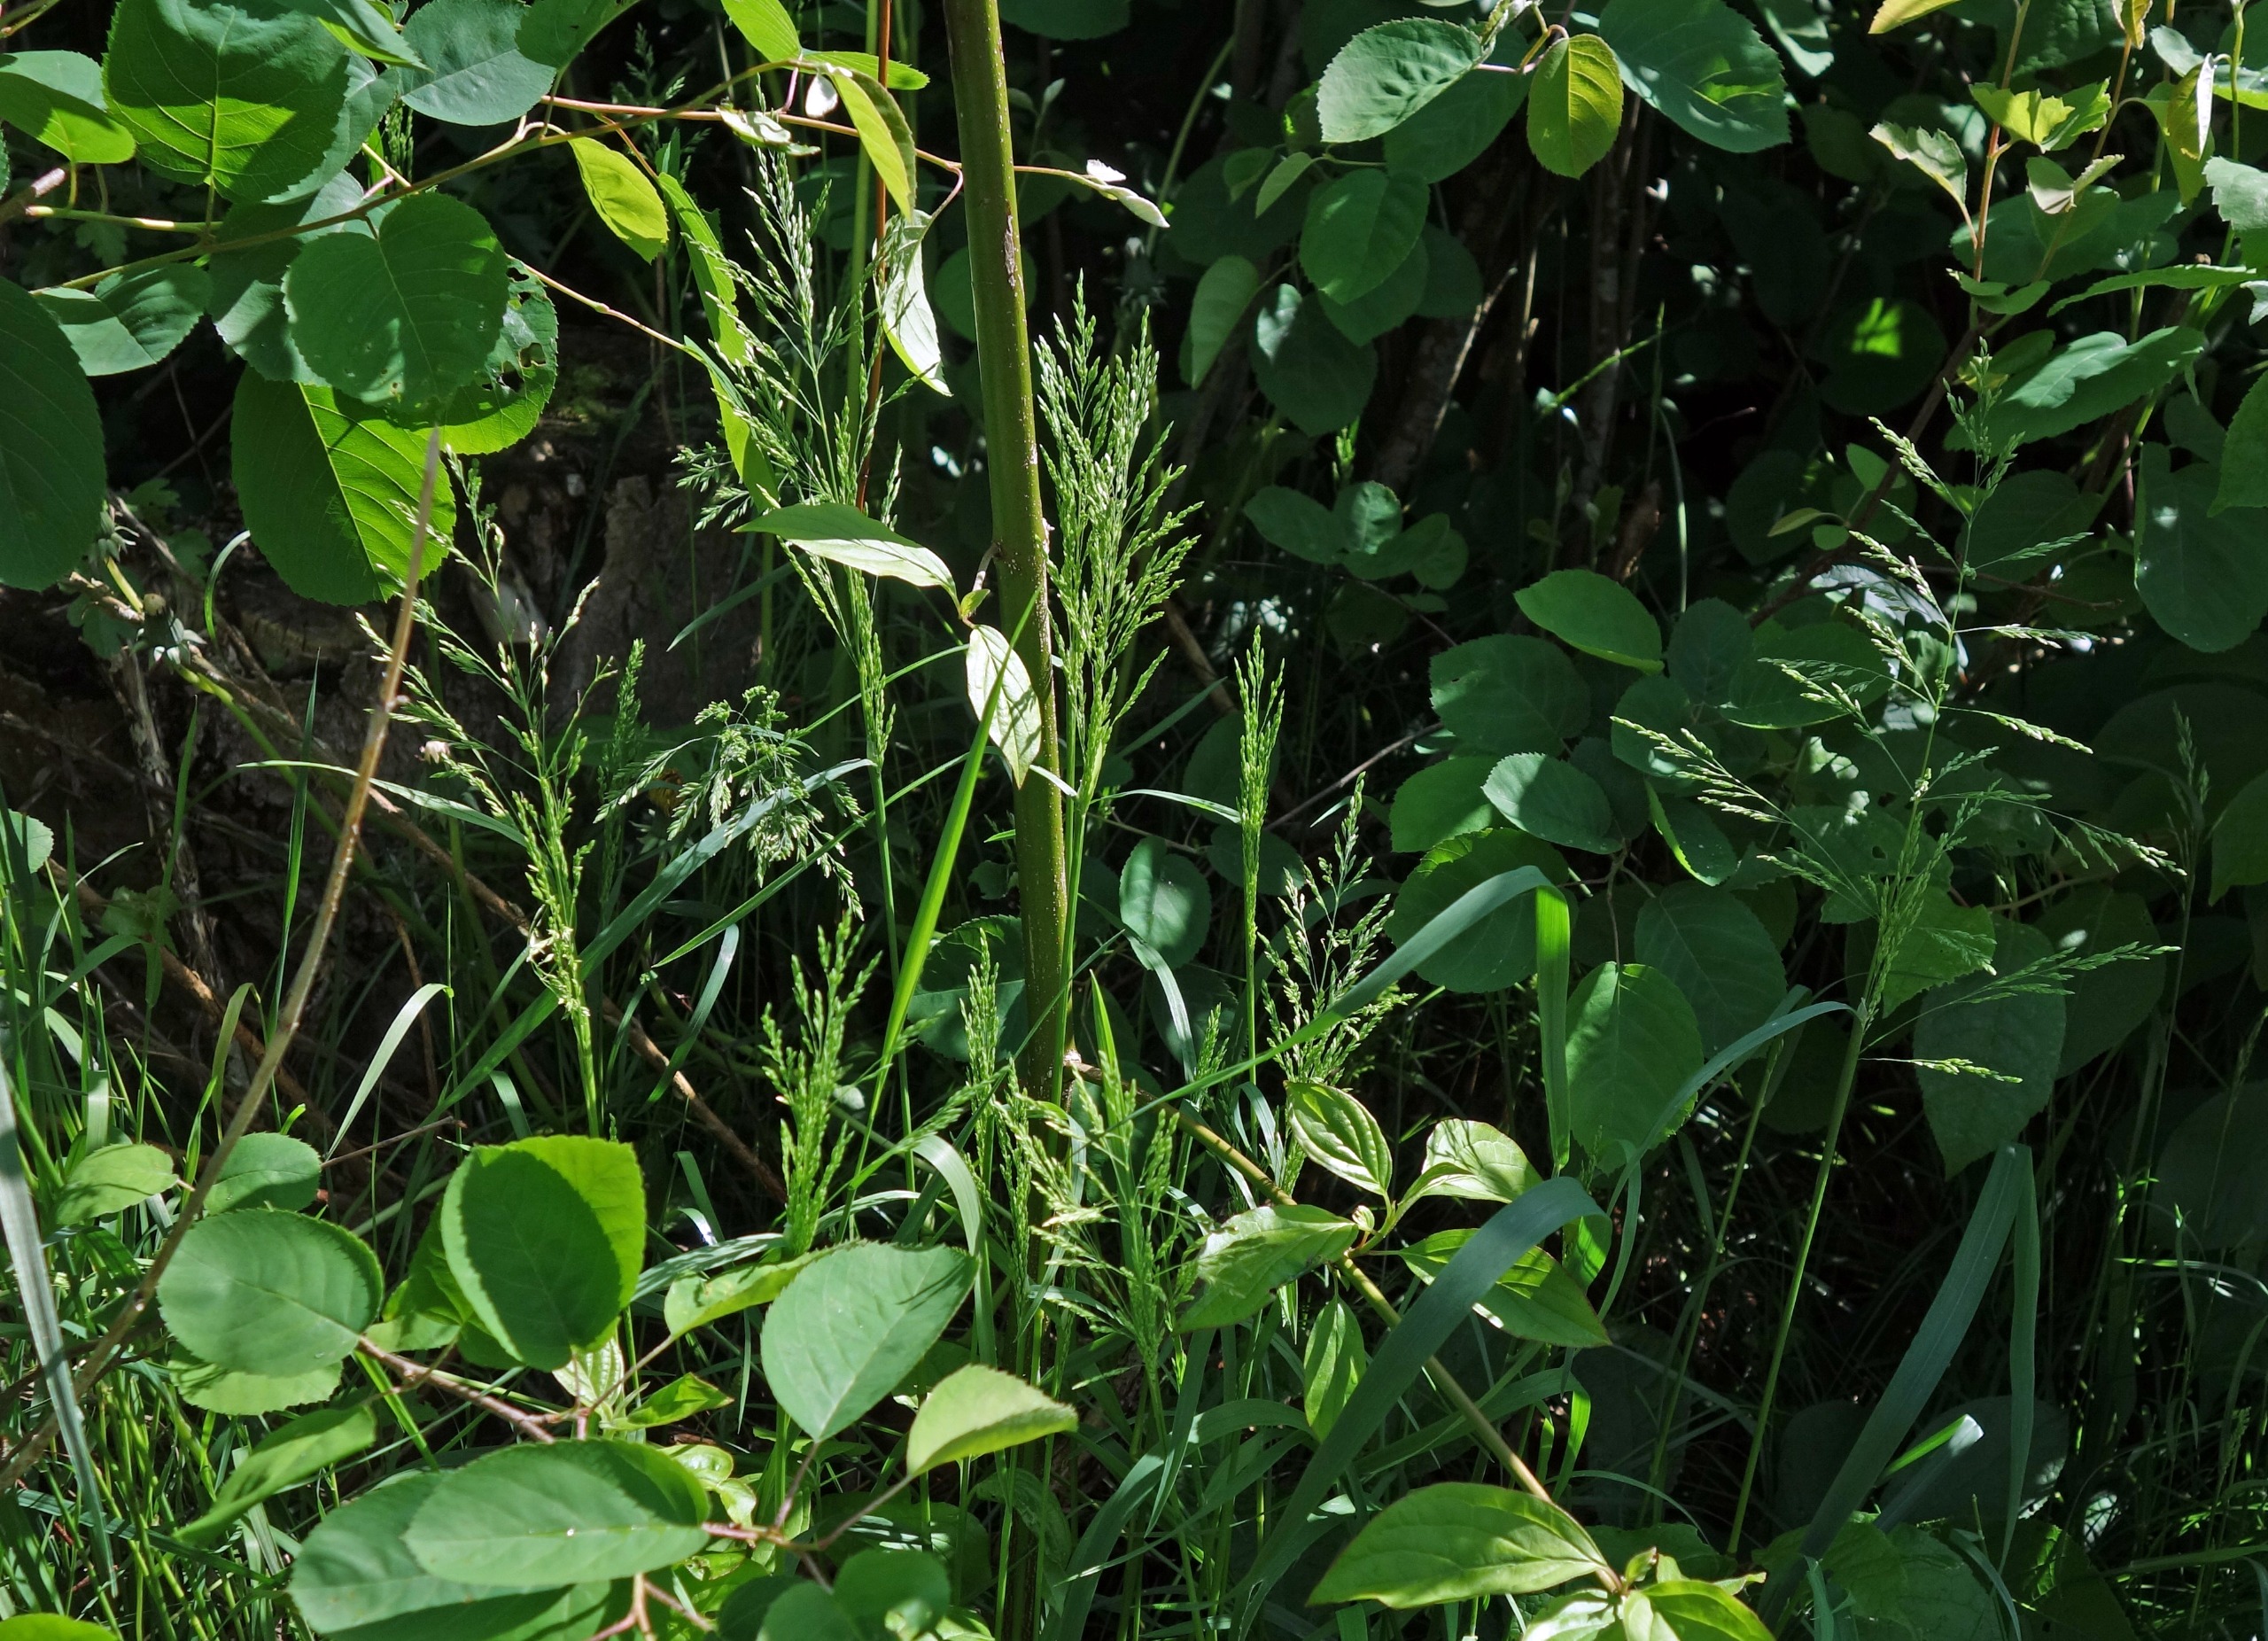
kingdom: Plantae
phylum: Tracheophyta
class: Liliopsida
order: Poales
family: Poaceae
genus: Poa
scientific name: Poa trivialis
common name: Almindelig rapgræs
